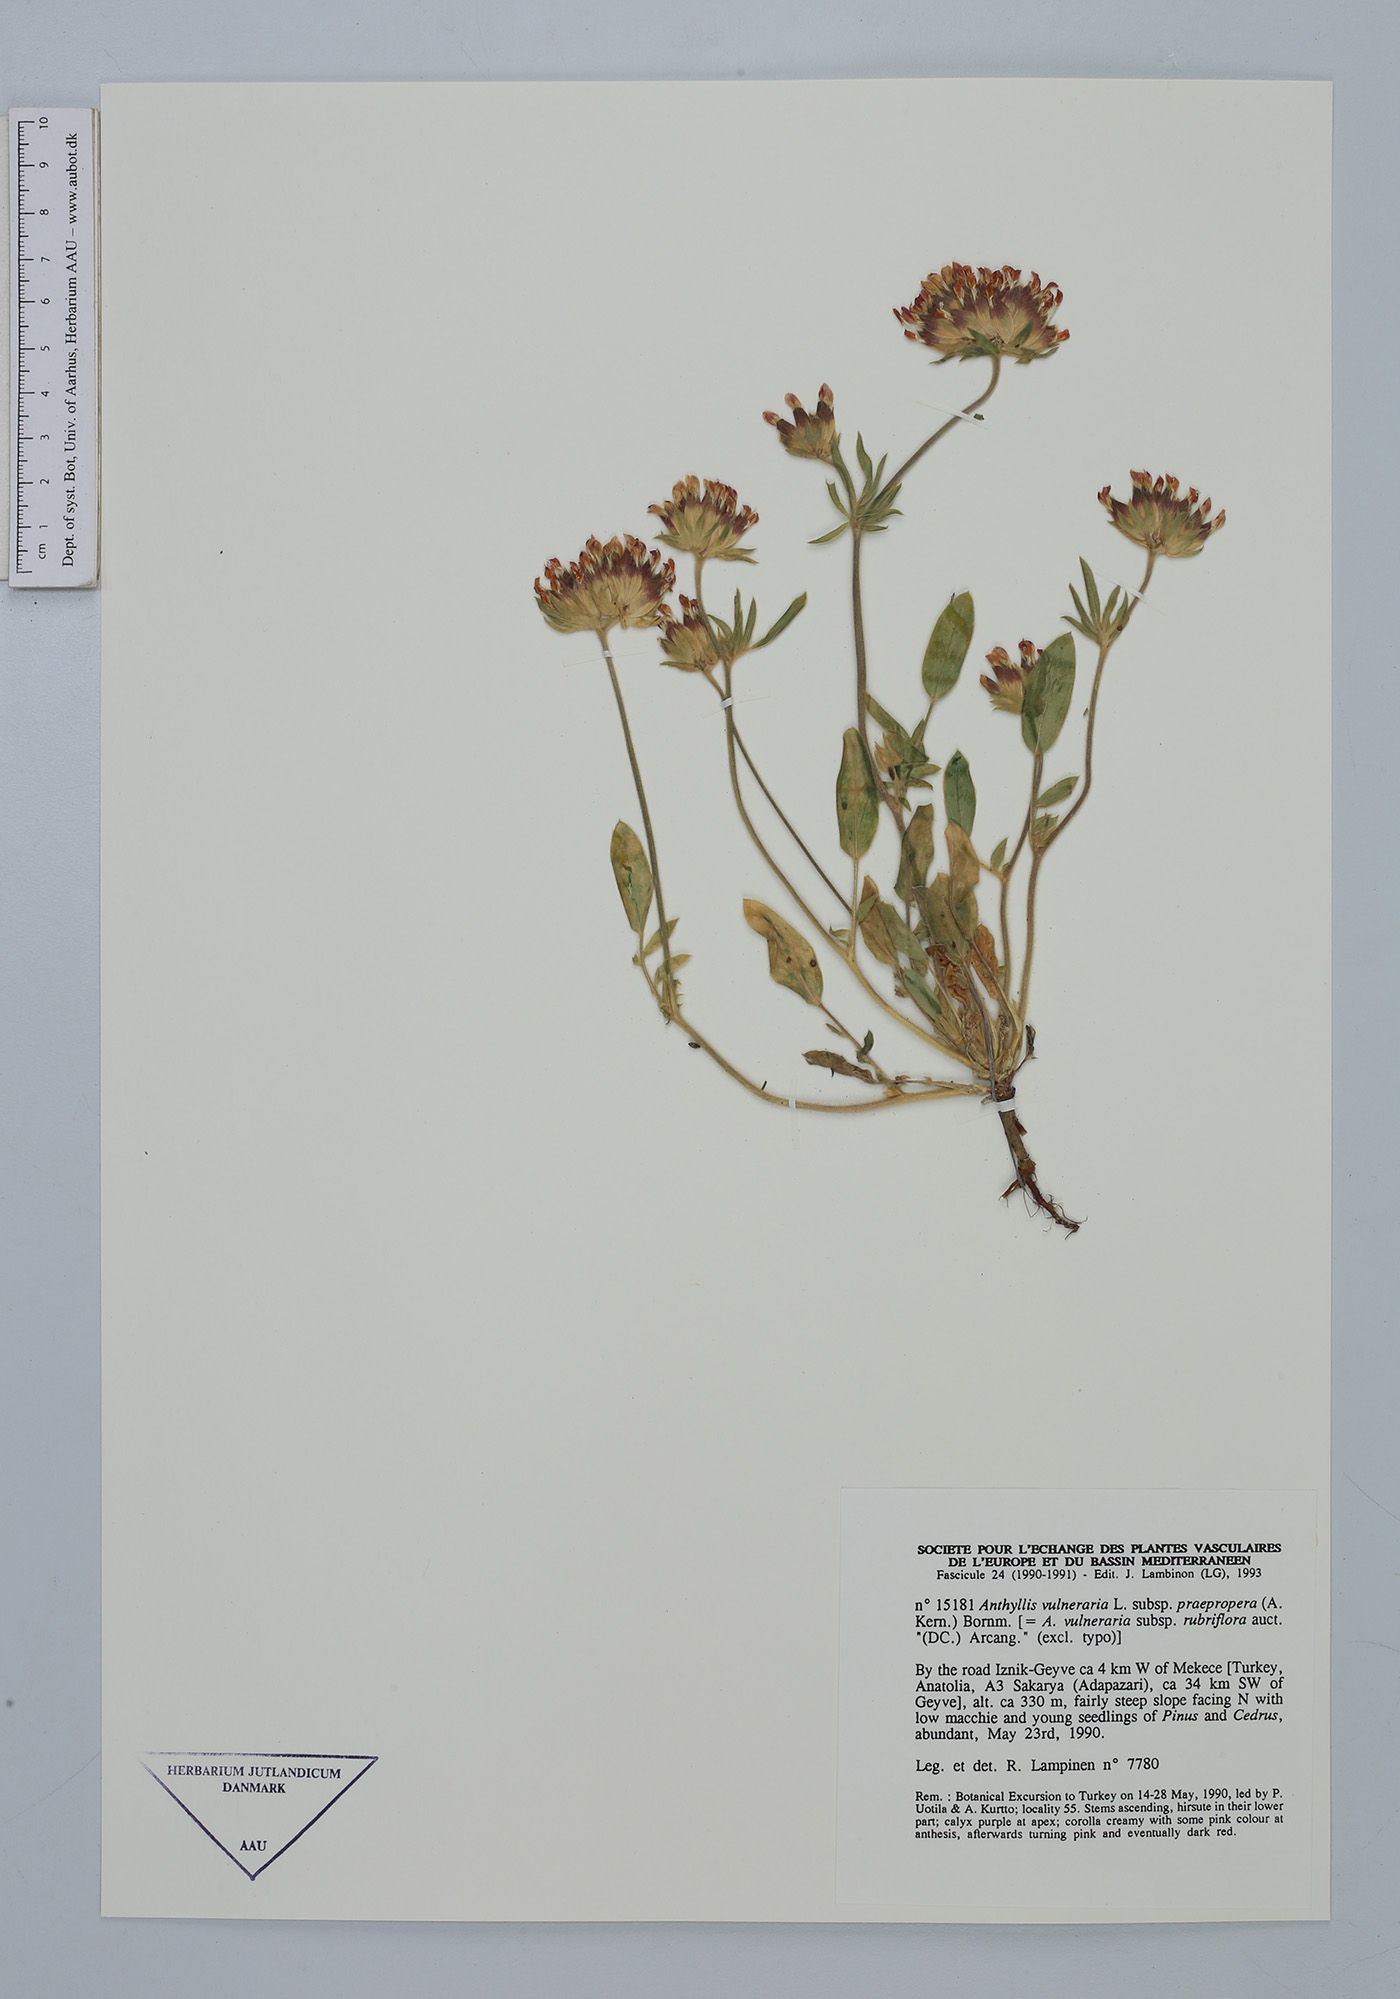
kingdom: Plantae
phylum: Tracheophyta
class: Magnoliopsida
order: Fabales
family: Fabaceae
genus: Anthyllis
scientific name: Anthyllis vulneraria
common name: Kidney vetch
